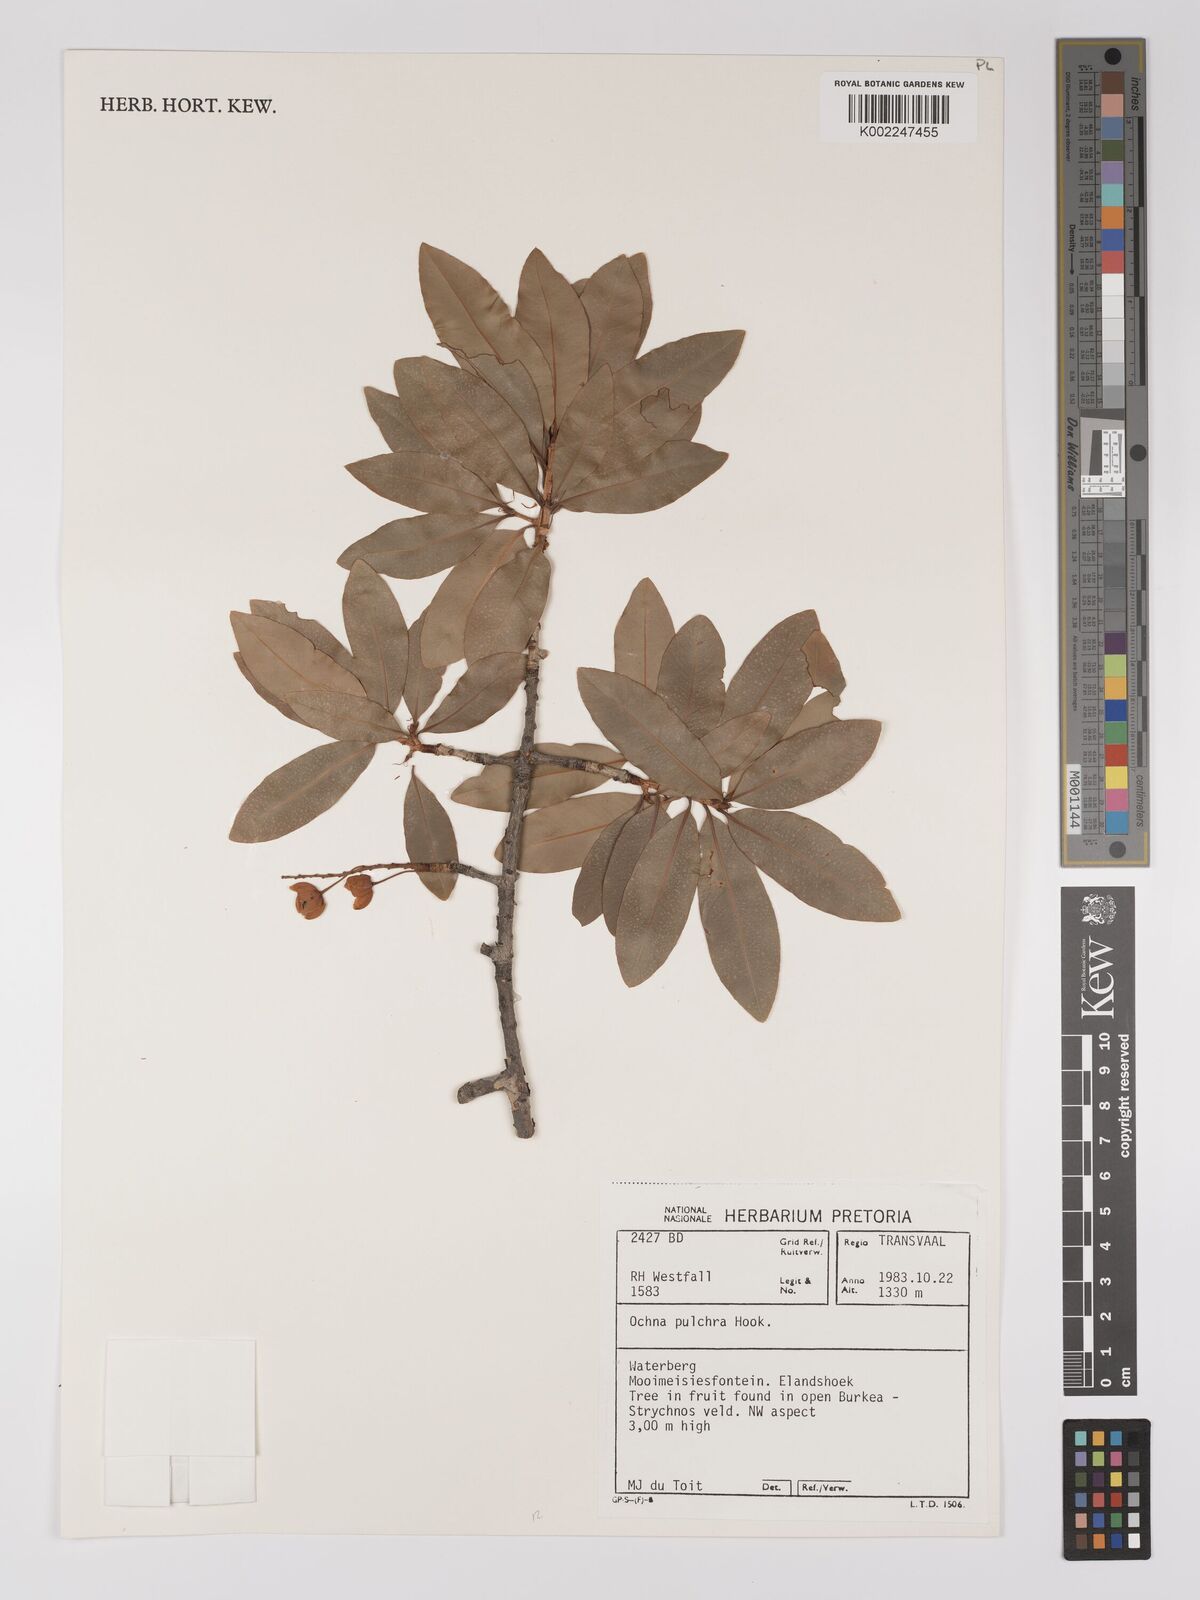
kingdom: Plantae
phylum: Tracheophyta
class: Magnoliopsida
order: Malpighiales
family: Ochnaceae
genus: Ochna
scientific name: Ochna pulchra
